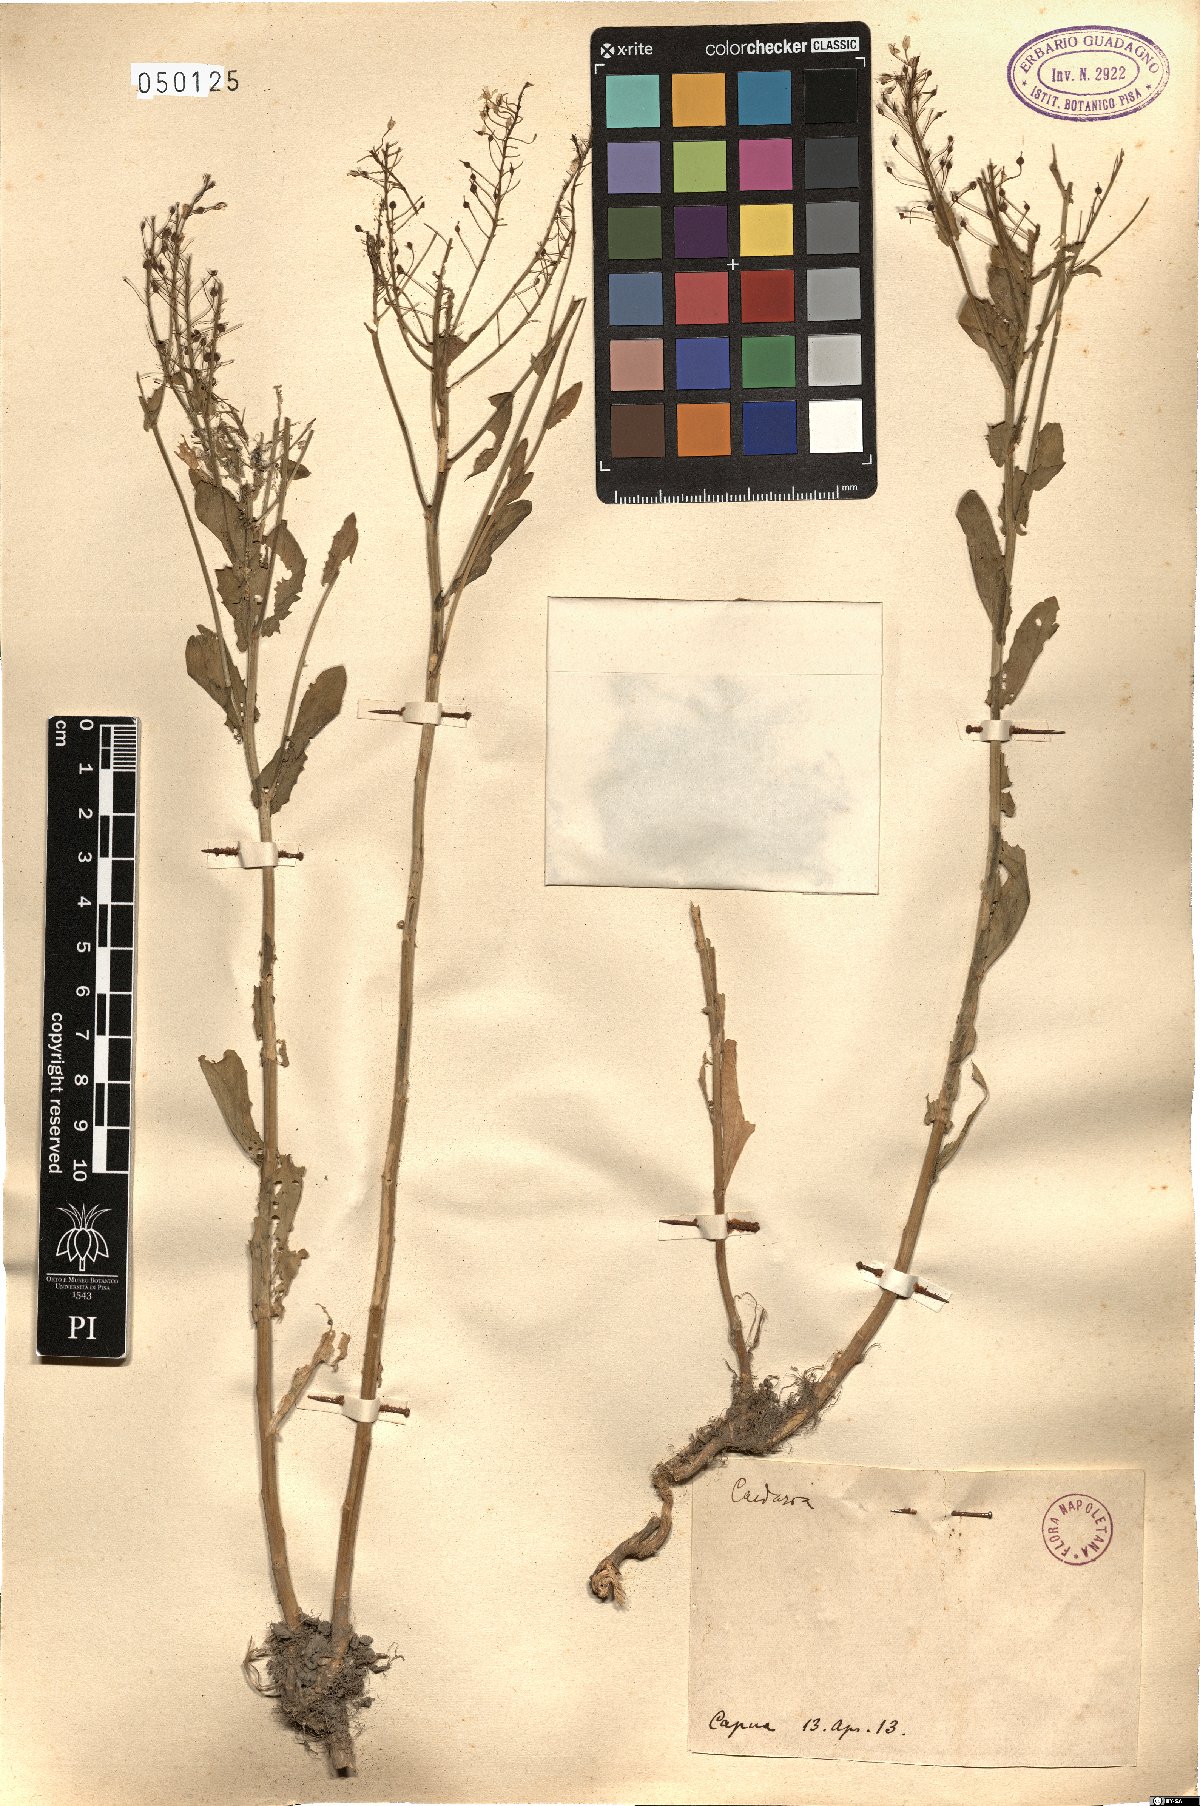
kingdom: Plantae
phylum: Tracheophyta
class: Magnoliopsida
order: Brassicales
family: Brassicaceae
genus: Lepidium
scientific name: Lepidium draba
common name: Hoary cress
